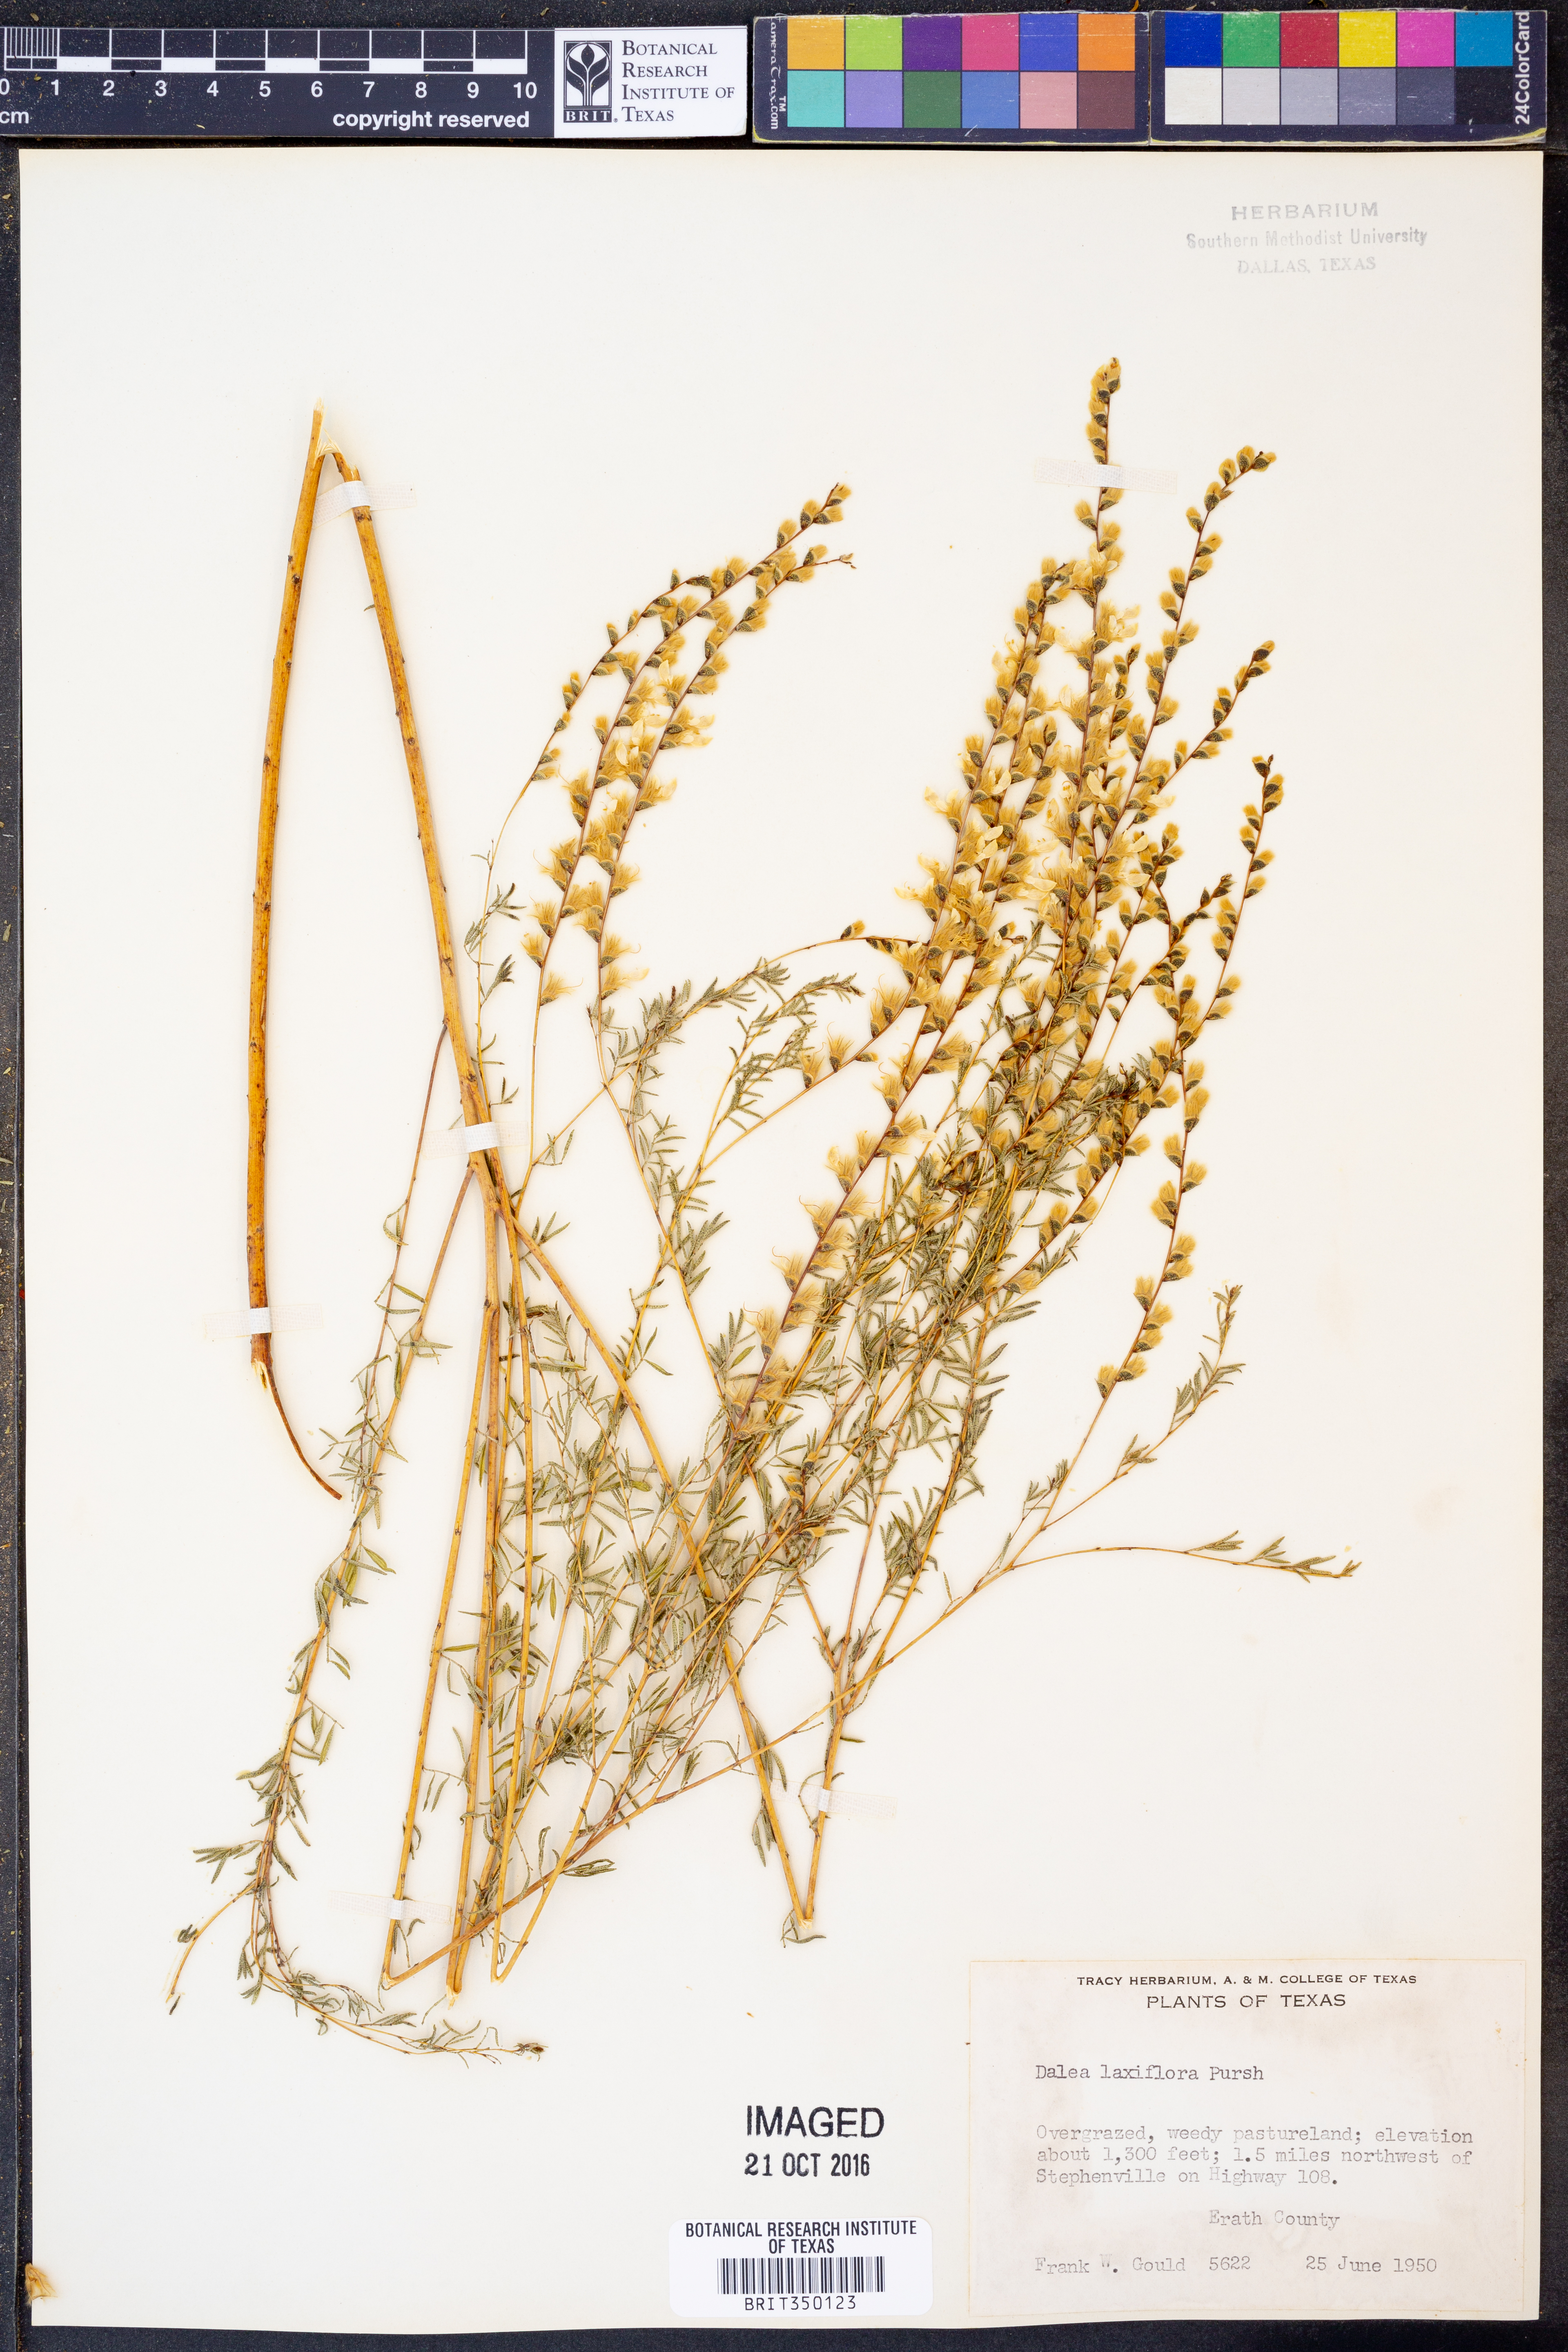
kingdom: Plantae
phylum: Tracheophyta
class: Magnoliopsida
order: Fabales
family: Fabaceae
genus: Dalea
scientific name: Dalea hegewischiana
